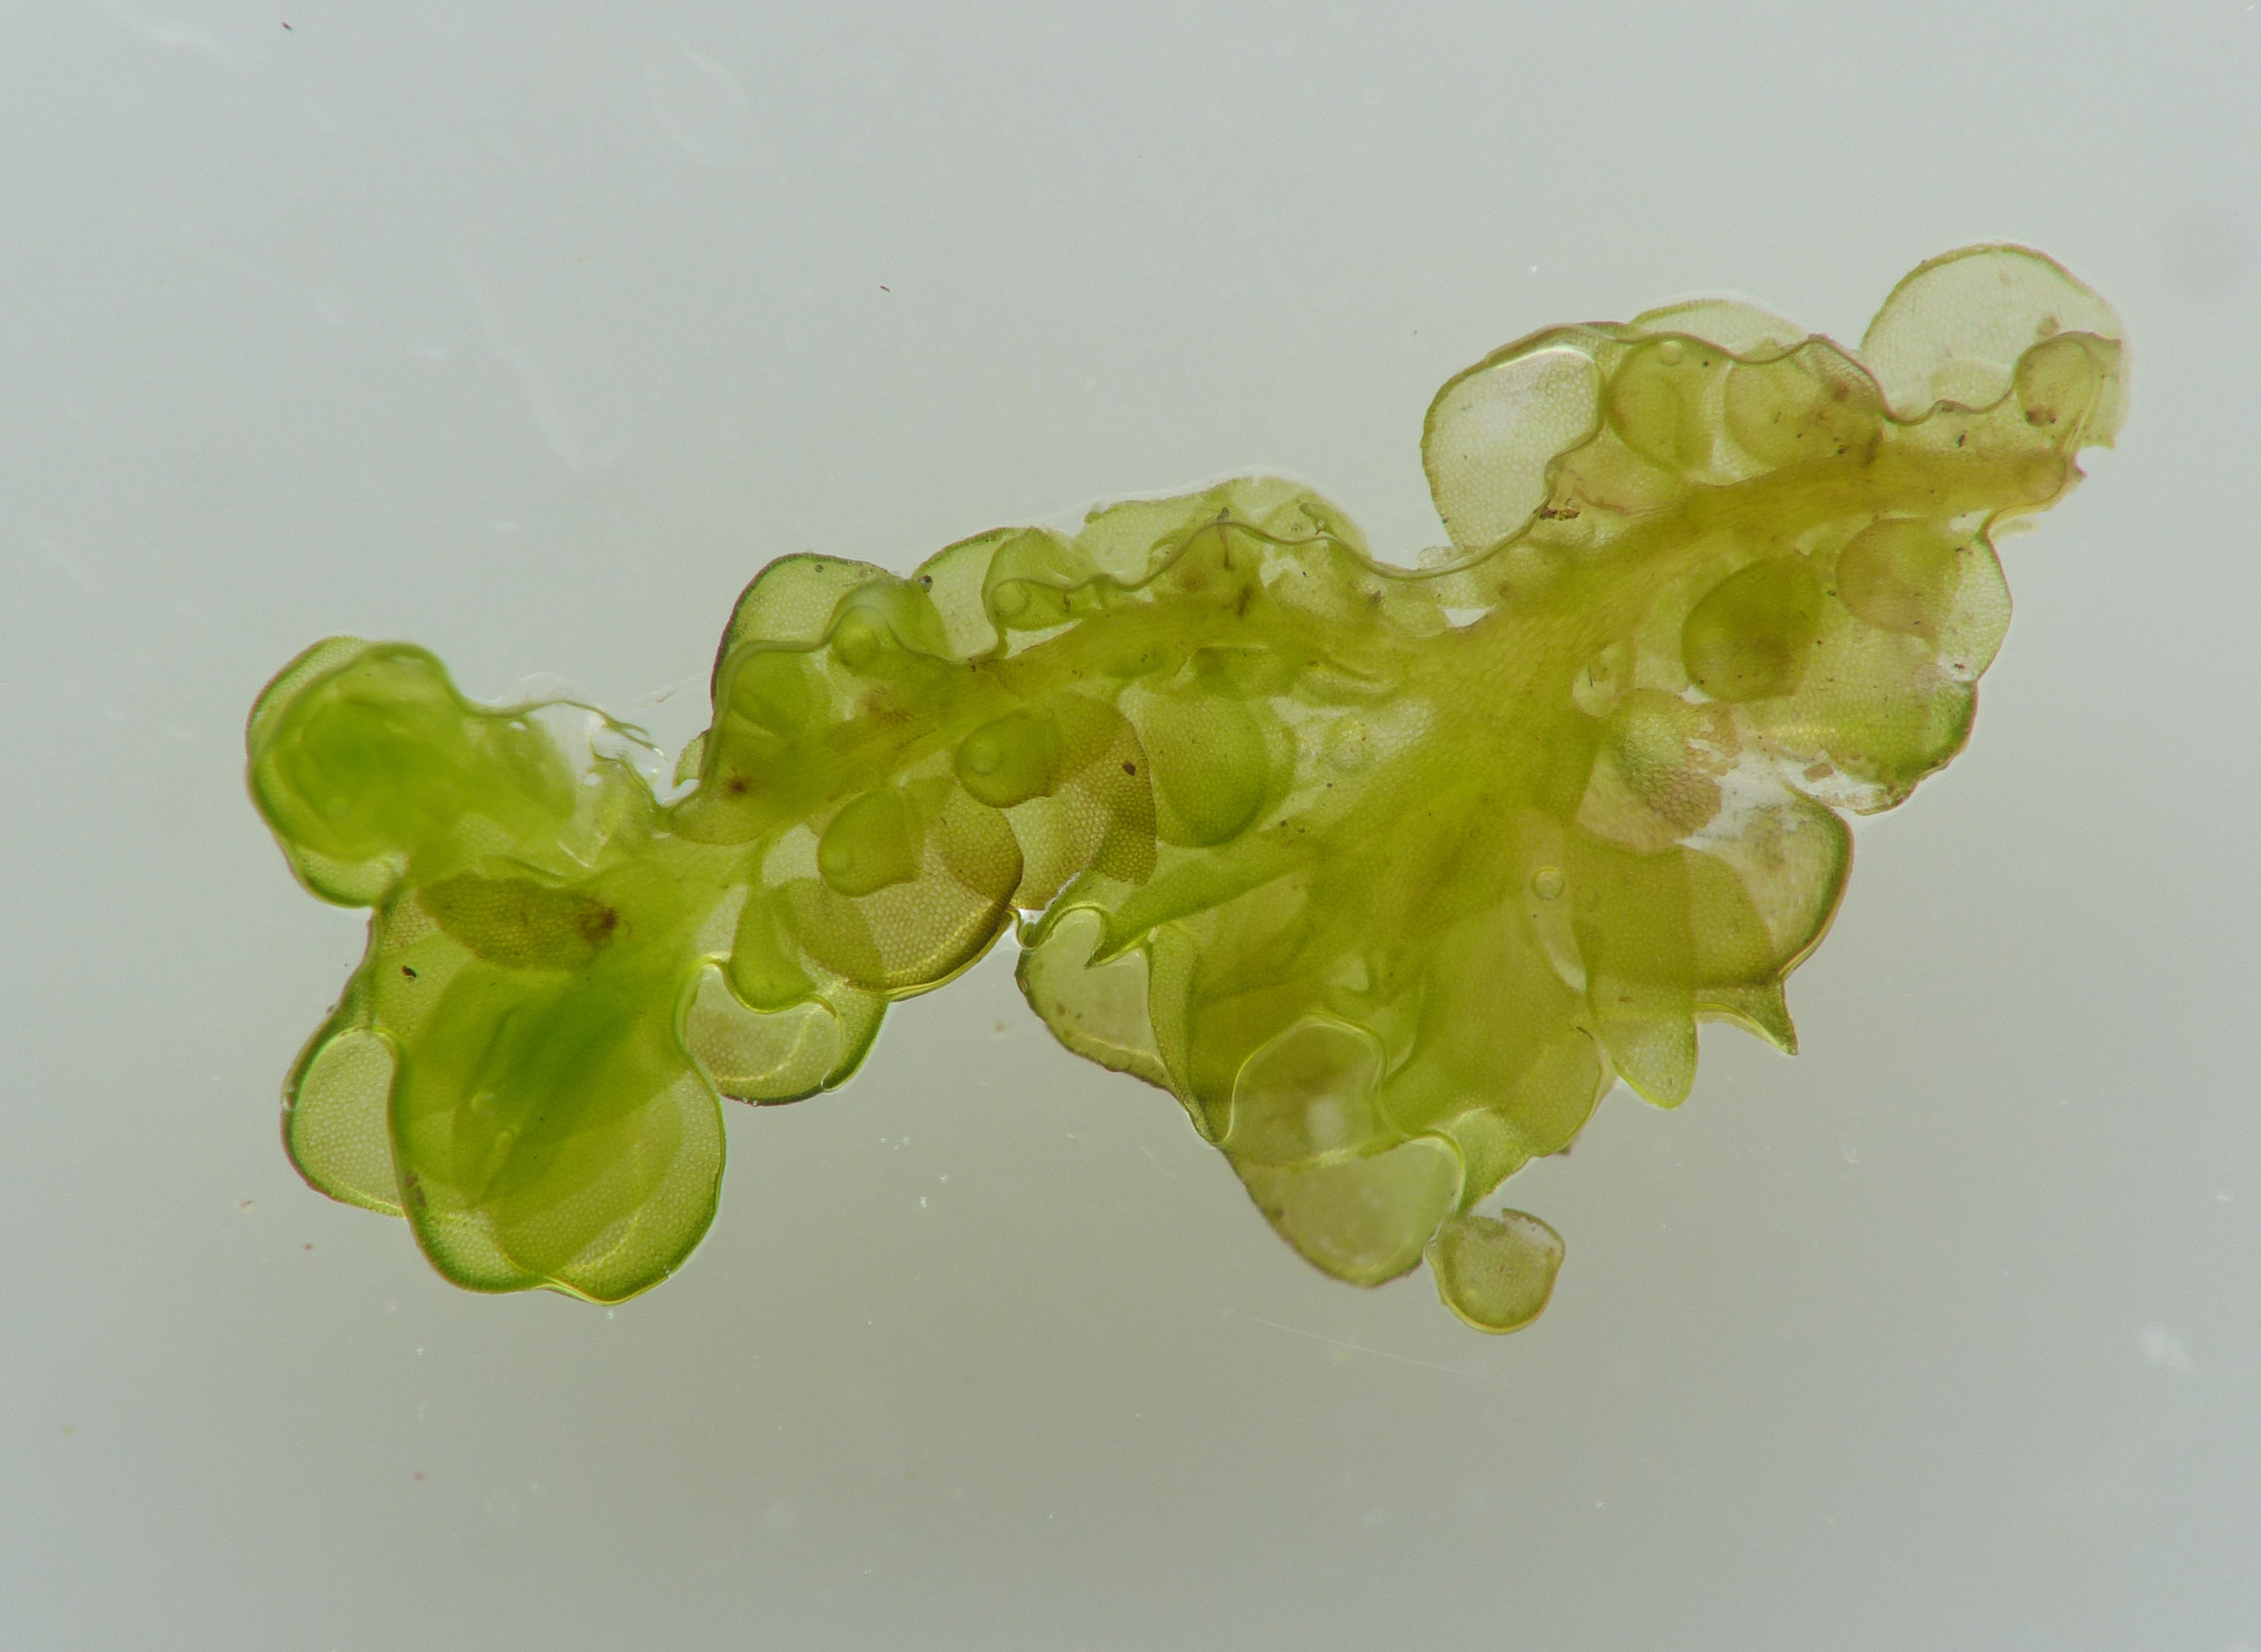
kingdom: Plantae
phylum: Marchantiophyta
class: Jungermanniopsida
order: Porellales
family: Frullaniaceae
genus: Frullania
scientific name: Frullania dilatata
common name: Mat bronzemos
